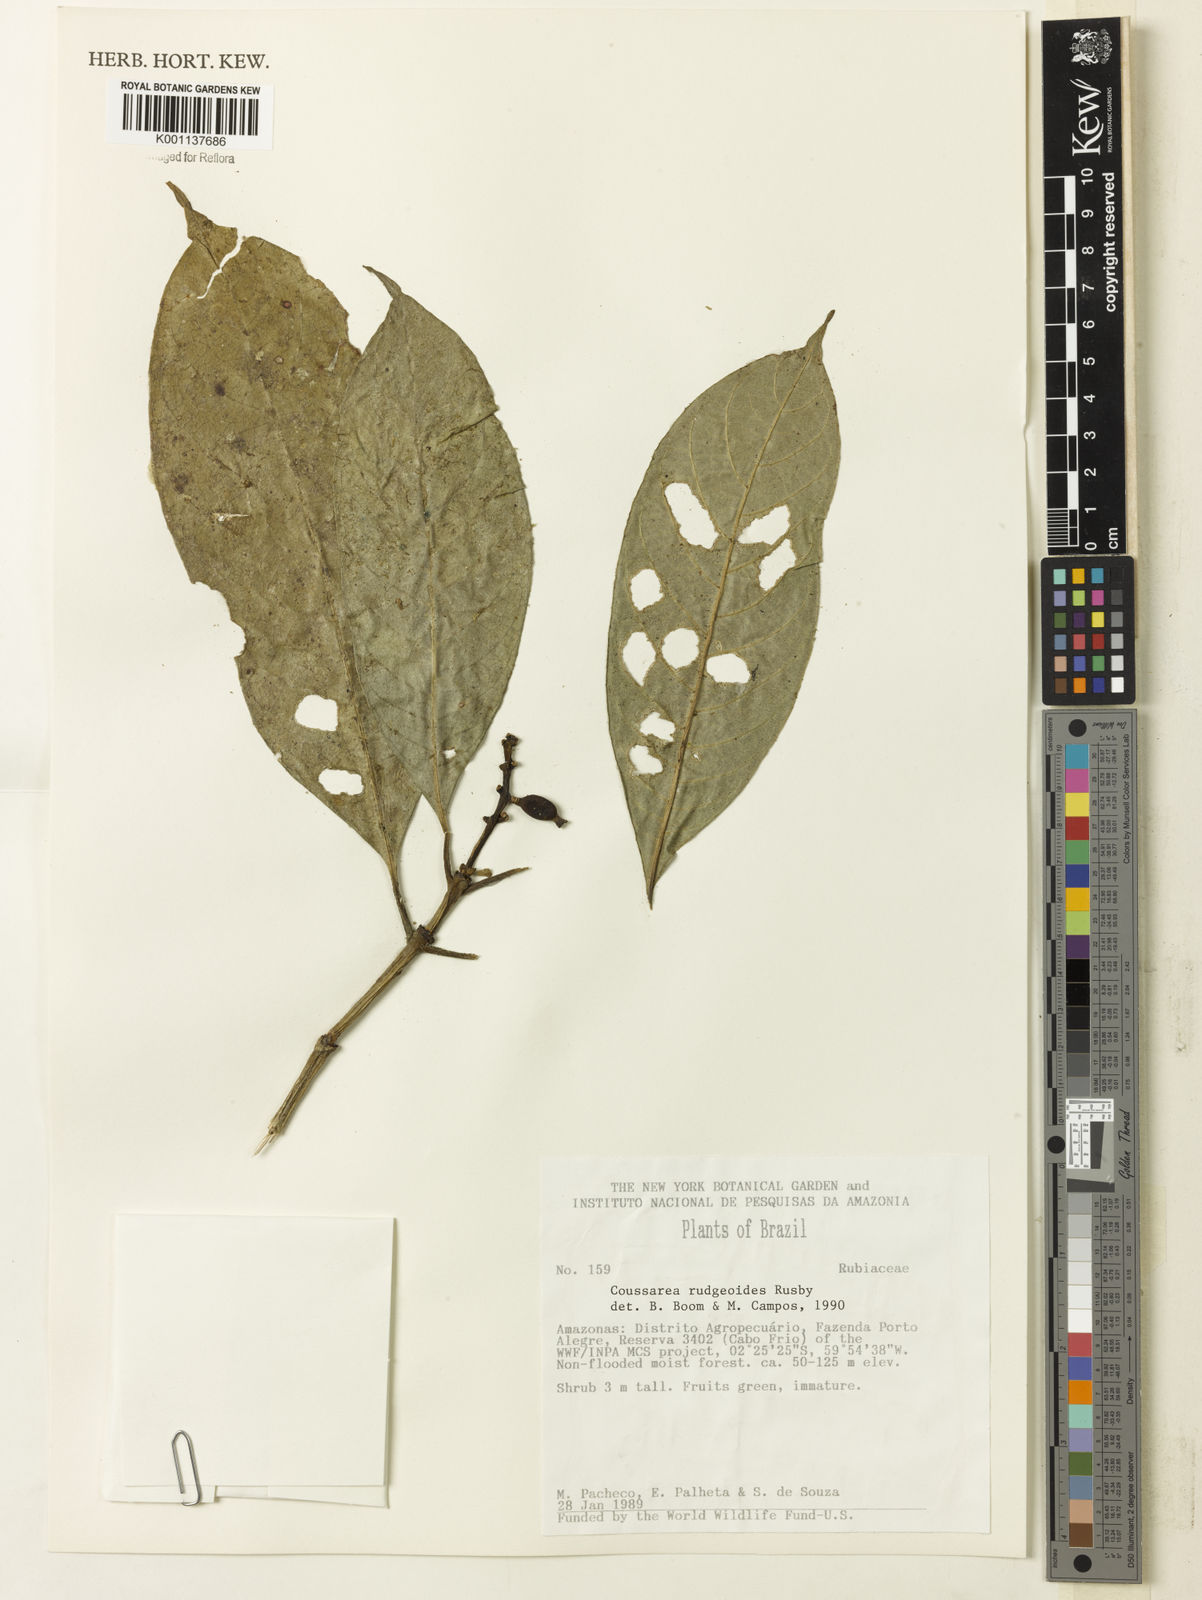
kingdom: Plantae
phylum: Tracheophyta
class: Magnoliopsida
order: Gentianales
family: Rubiaceae
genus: Coussarea
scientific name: Coussarea
